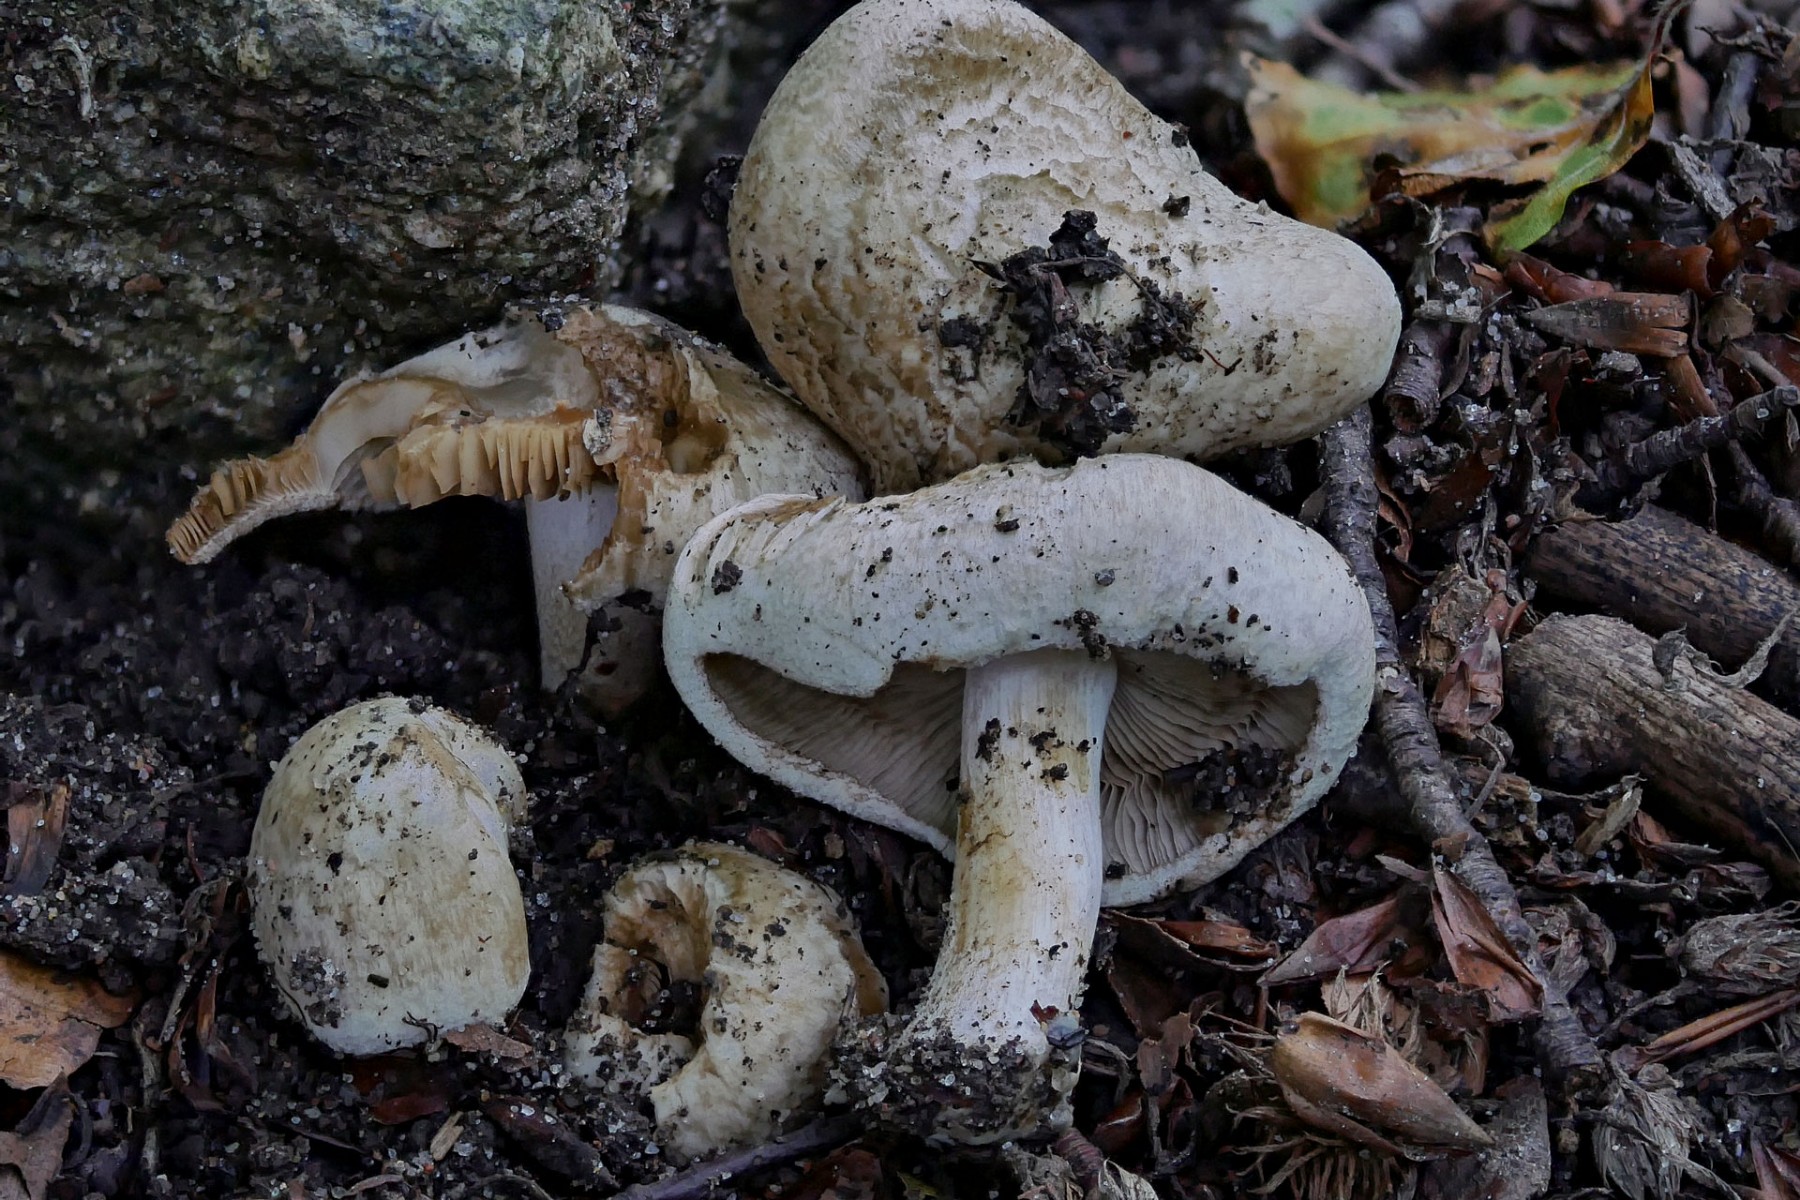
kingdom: Fungi
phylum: Basidiomycota
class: Agaricomycetes
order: Agaricales
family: Inocybaceae
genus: Inocybe
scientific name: Inocybe corydalina
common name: grønpuklet trævlhat
